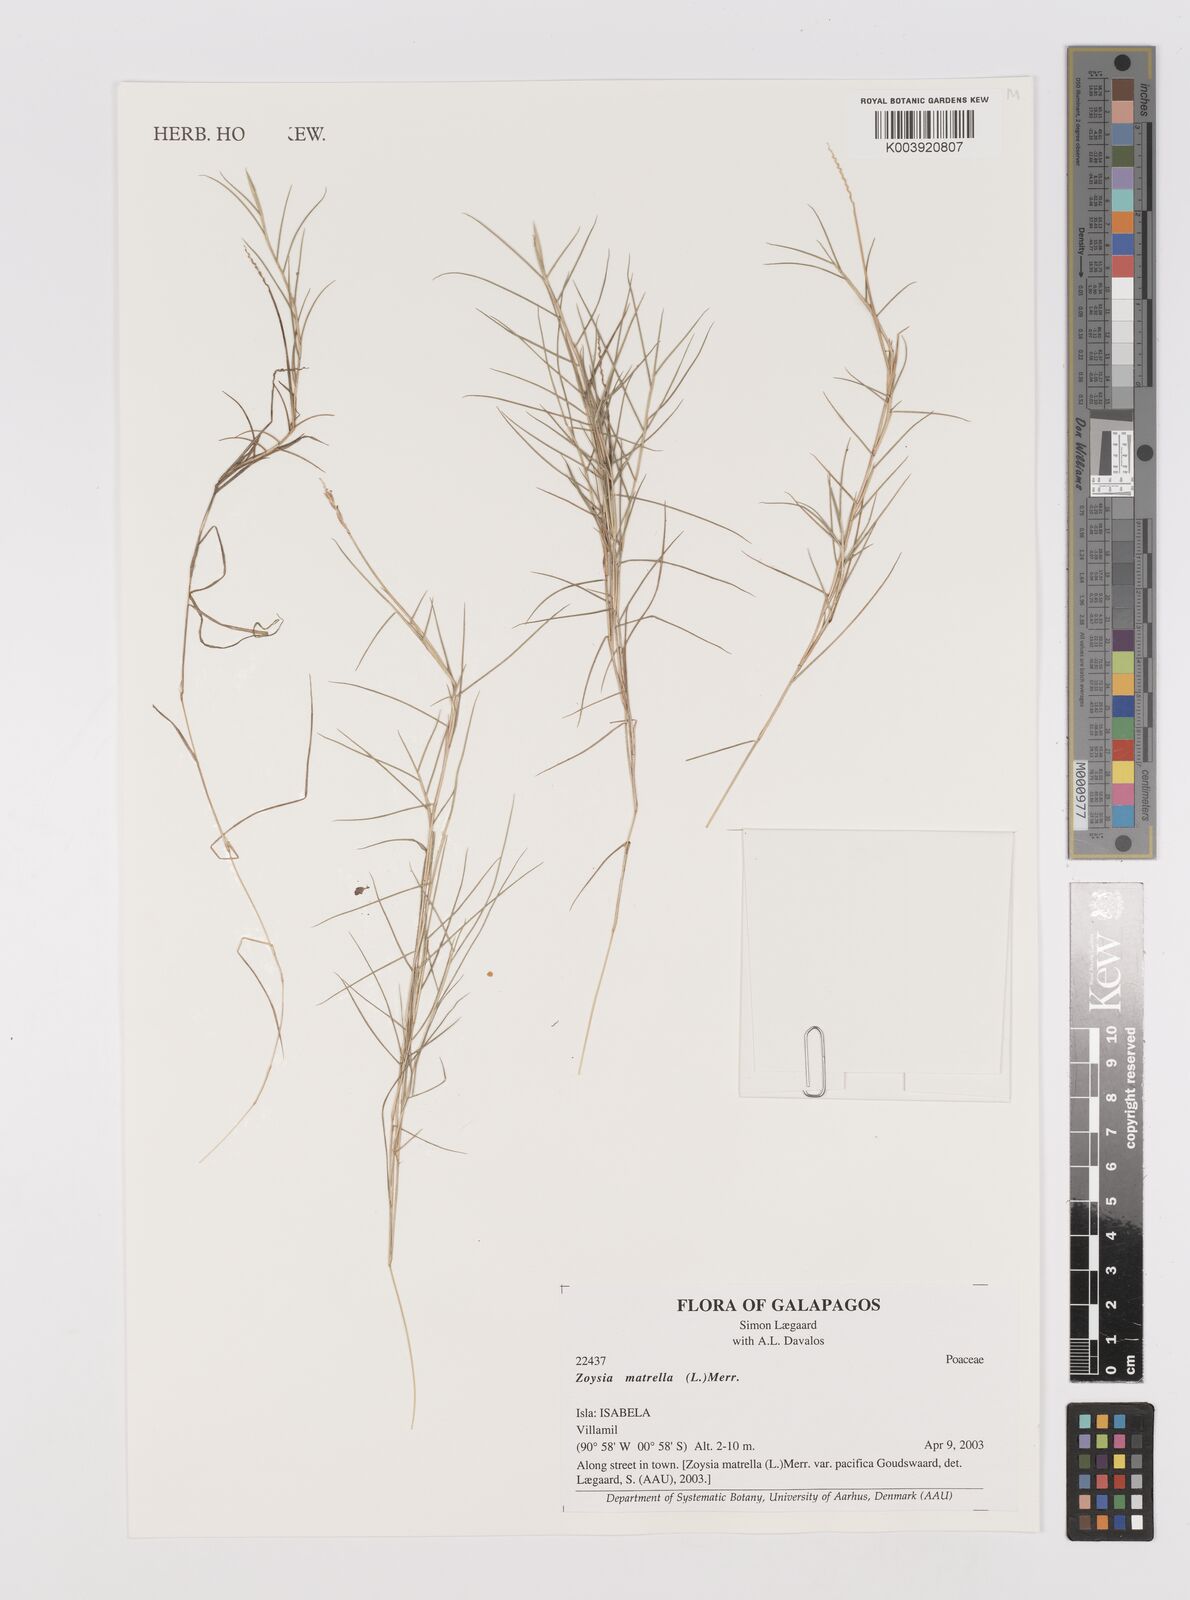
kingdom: Plantae
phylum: Tracheophyta
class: Liliopsida
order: Poales
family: Poaceae
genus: Zoysia
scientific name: Zoysia matrella
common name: Manila grass
